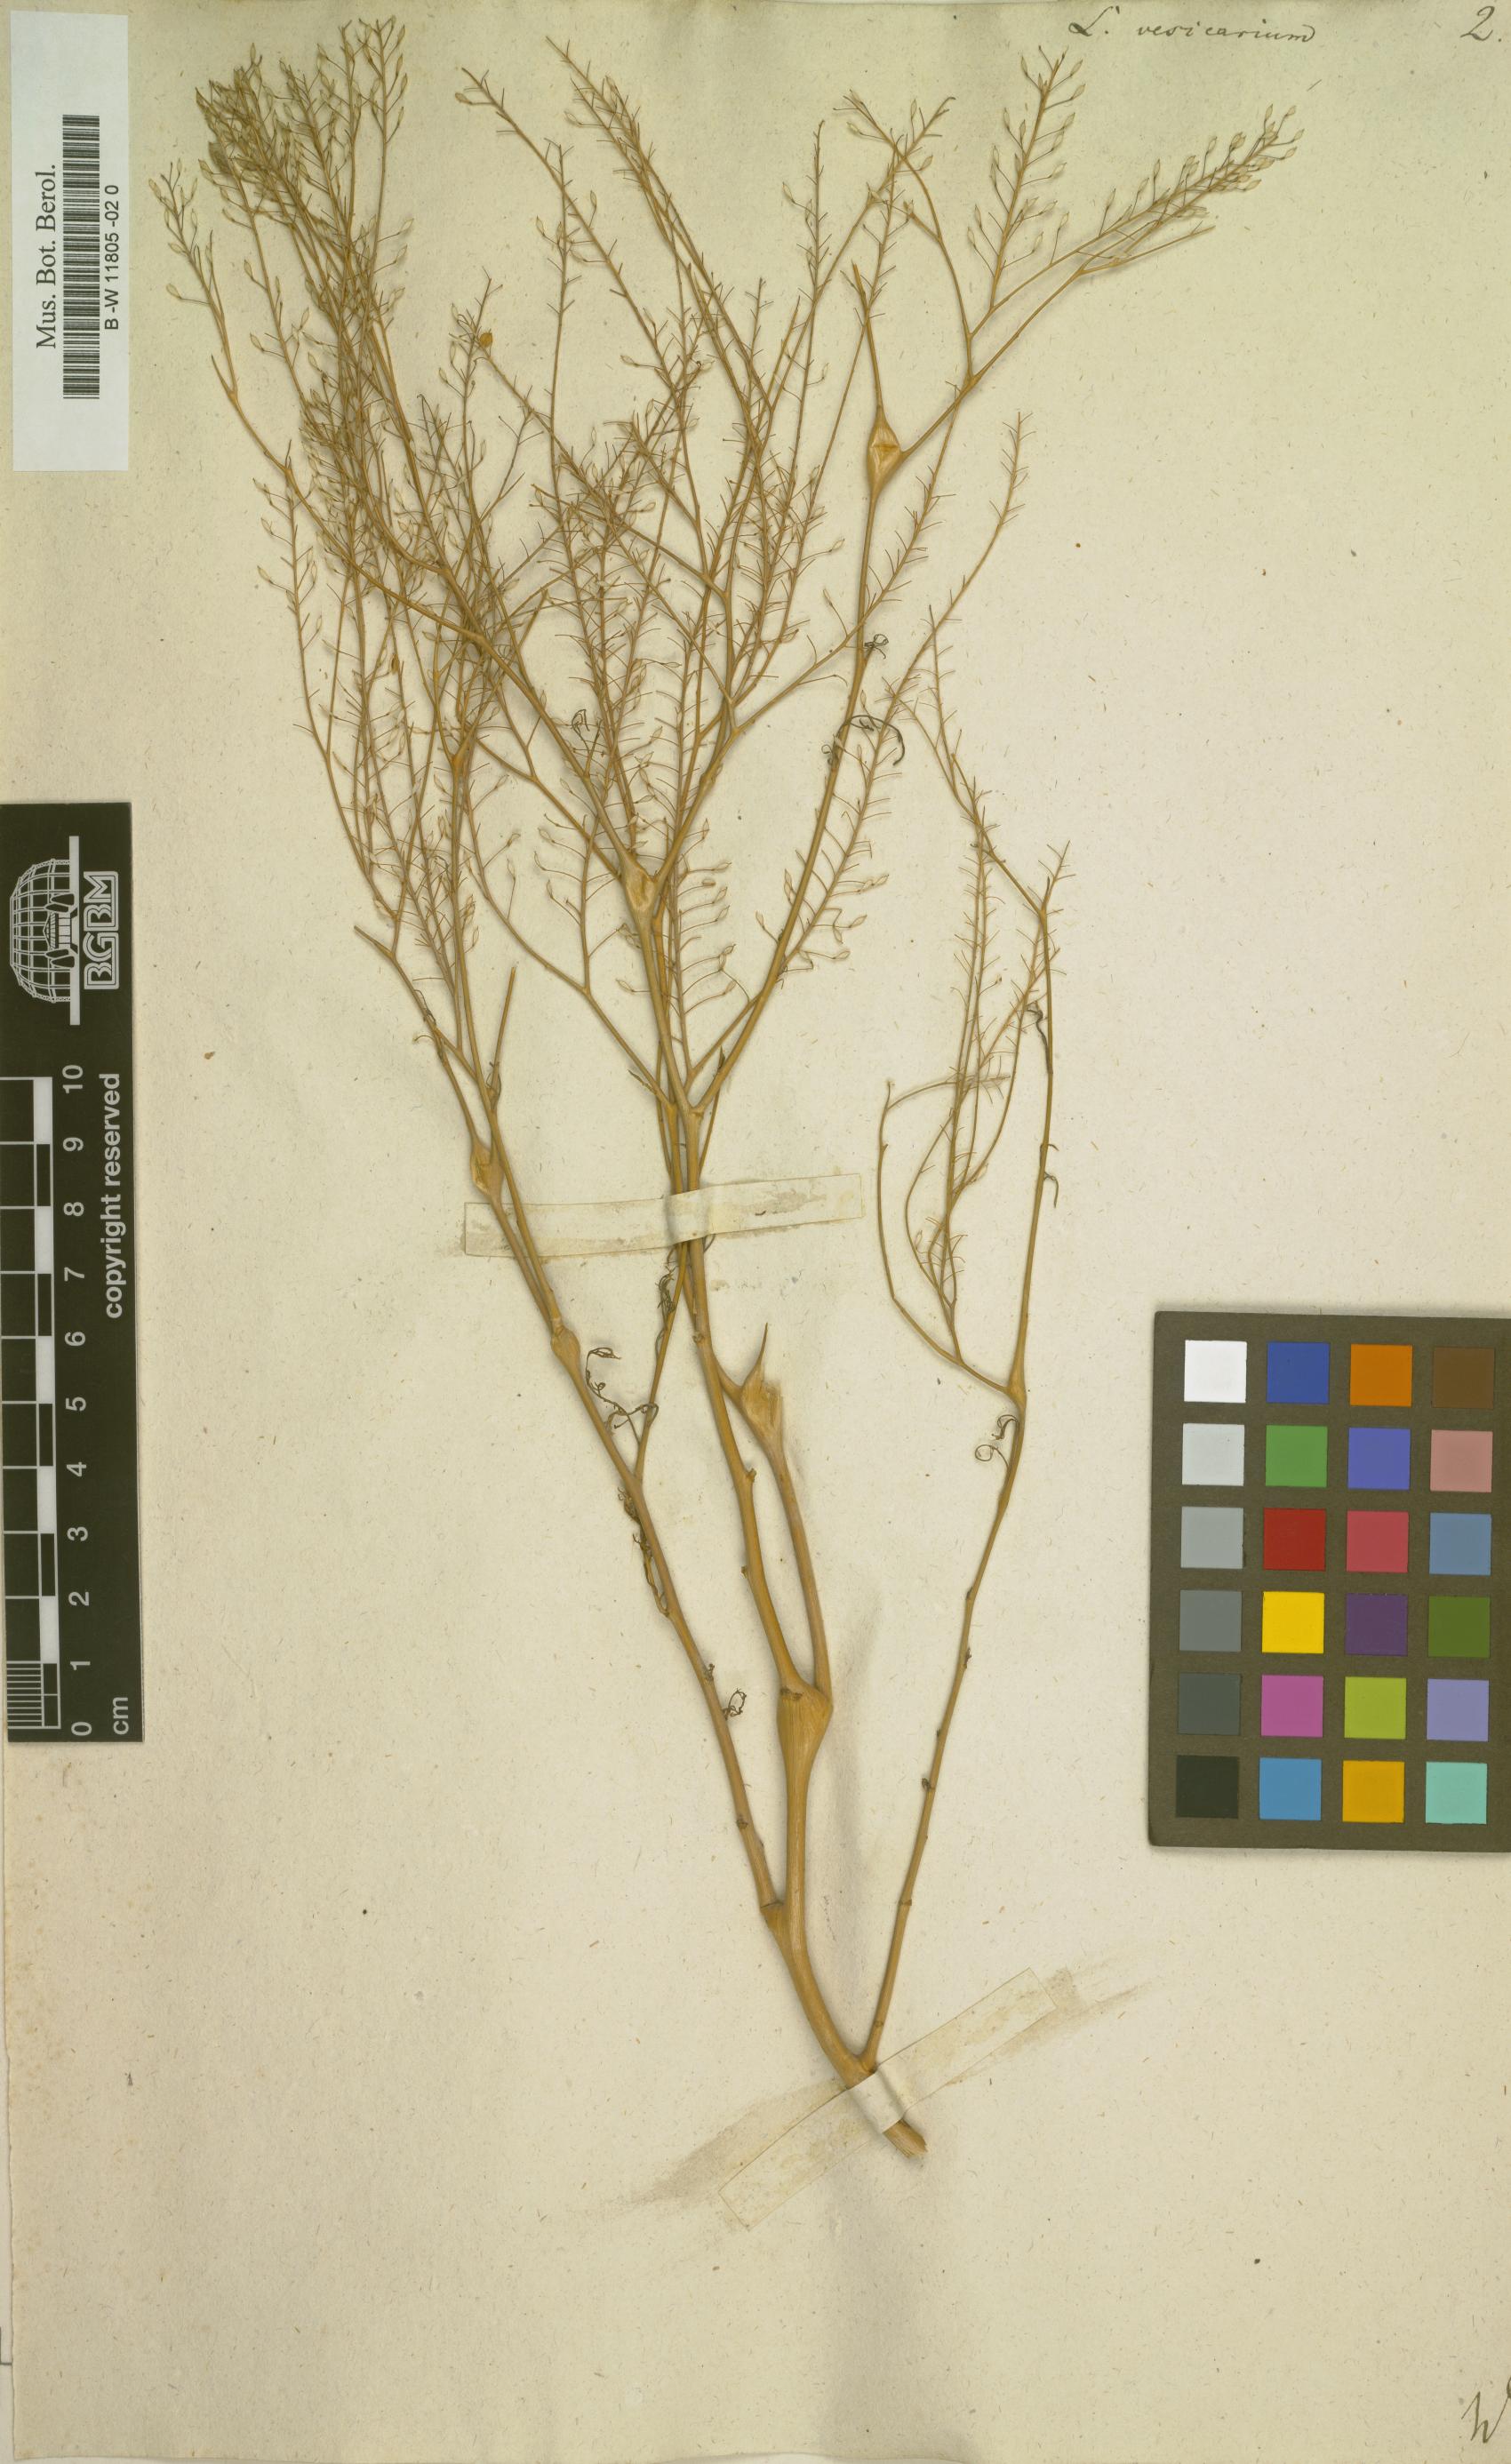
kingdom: Plantae
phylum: Tracheophyta
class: Magnoliopsida
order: Brassicales
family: Brassicaceae
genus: Lepidium
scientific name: Lepidium vesicarium
